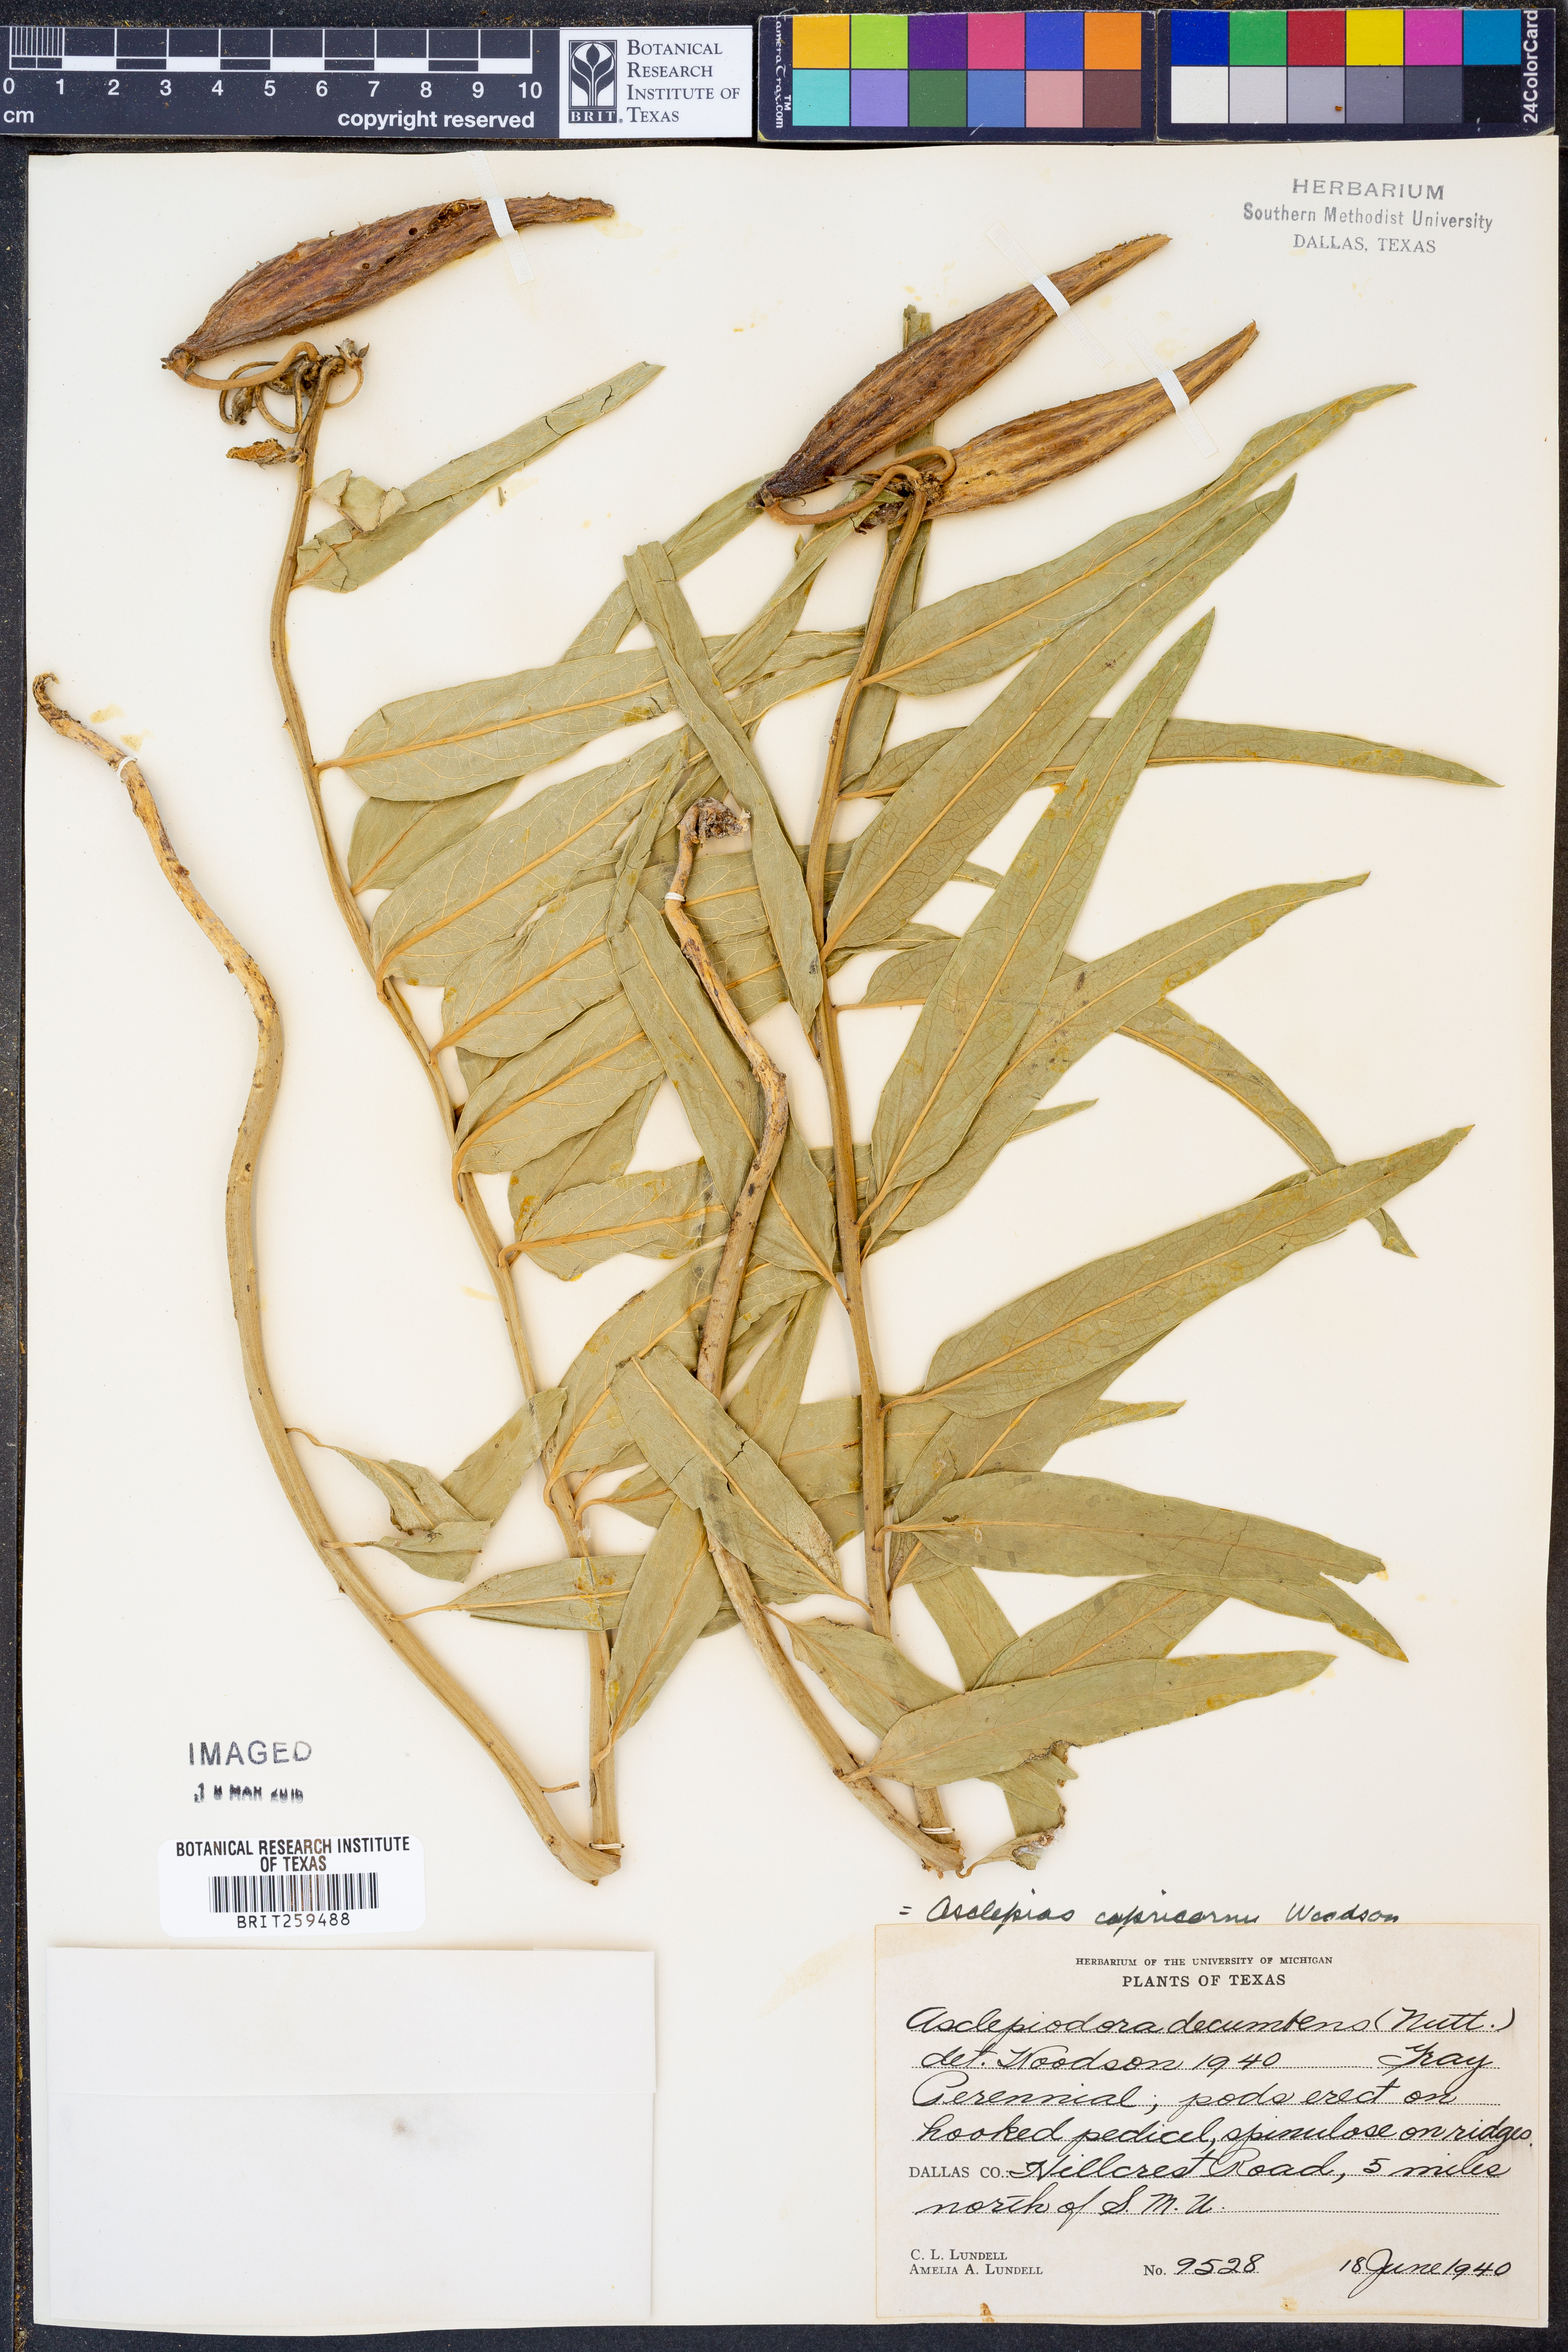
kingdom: Plantae
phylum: Tracheophyta
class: Magnoliopsida
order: Gentianales
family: Apocynaceae
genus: Asclepias
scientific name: Asclepias asperula
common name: Antelope horns
